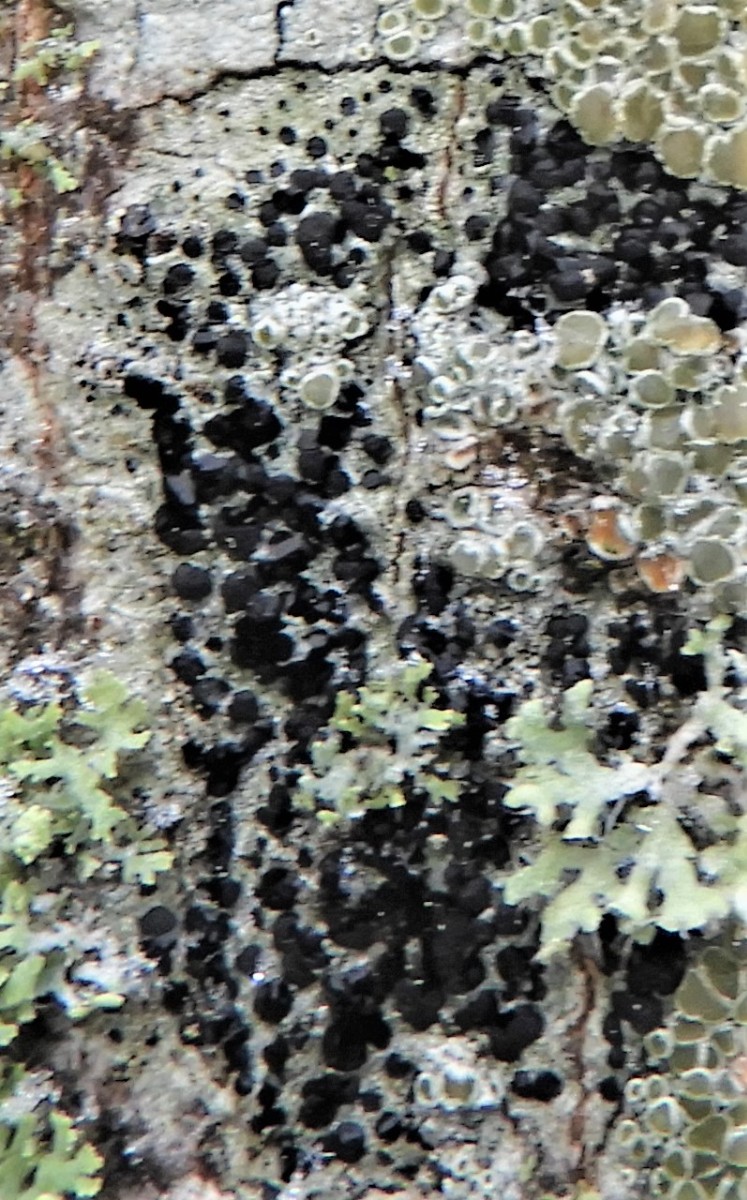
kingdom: Fungi
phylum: Ascomycota
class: Lecanoromycetes
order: Lecanorales
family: Lecanoraceae
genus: Lecidella
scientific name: Lecidella elaeochroma
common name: grågrøn skivelav
